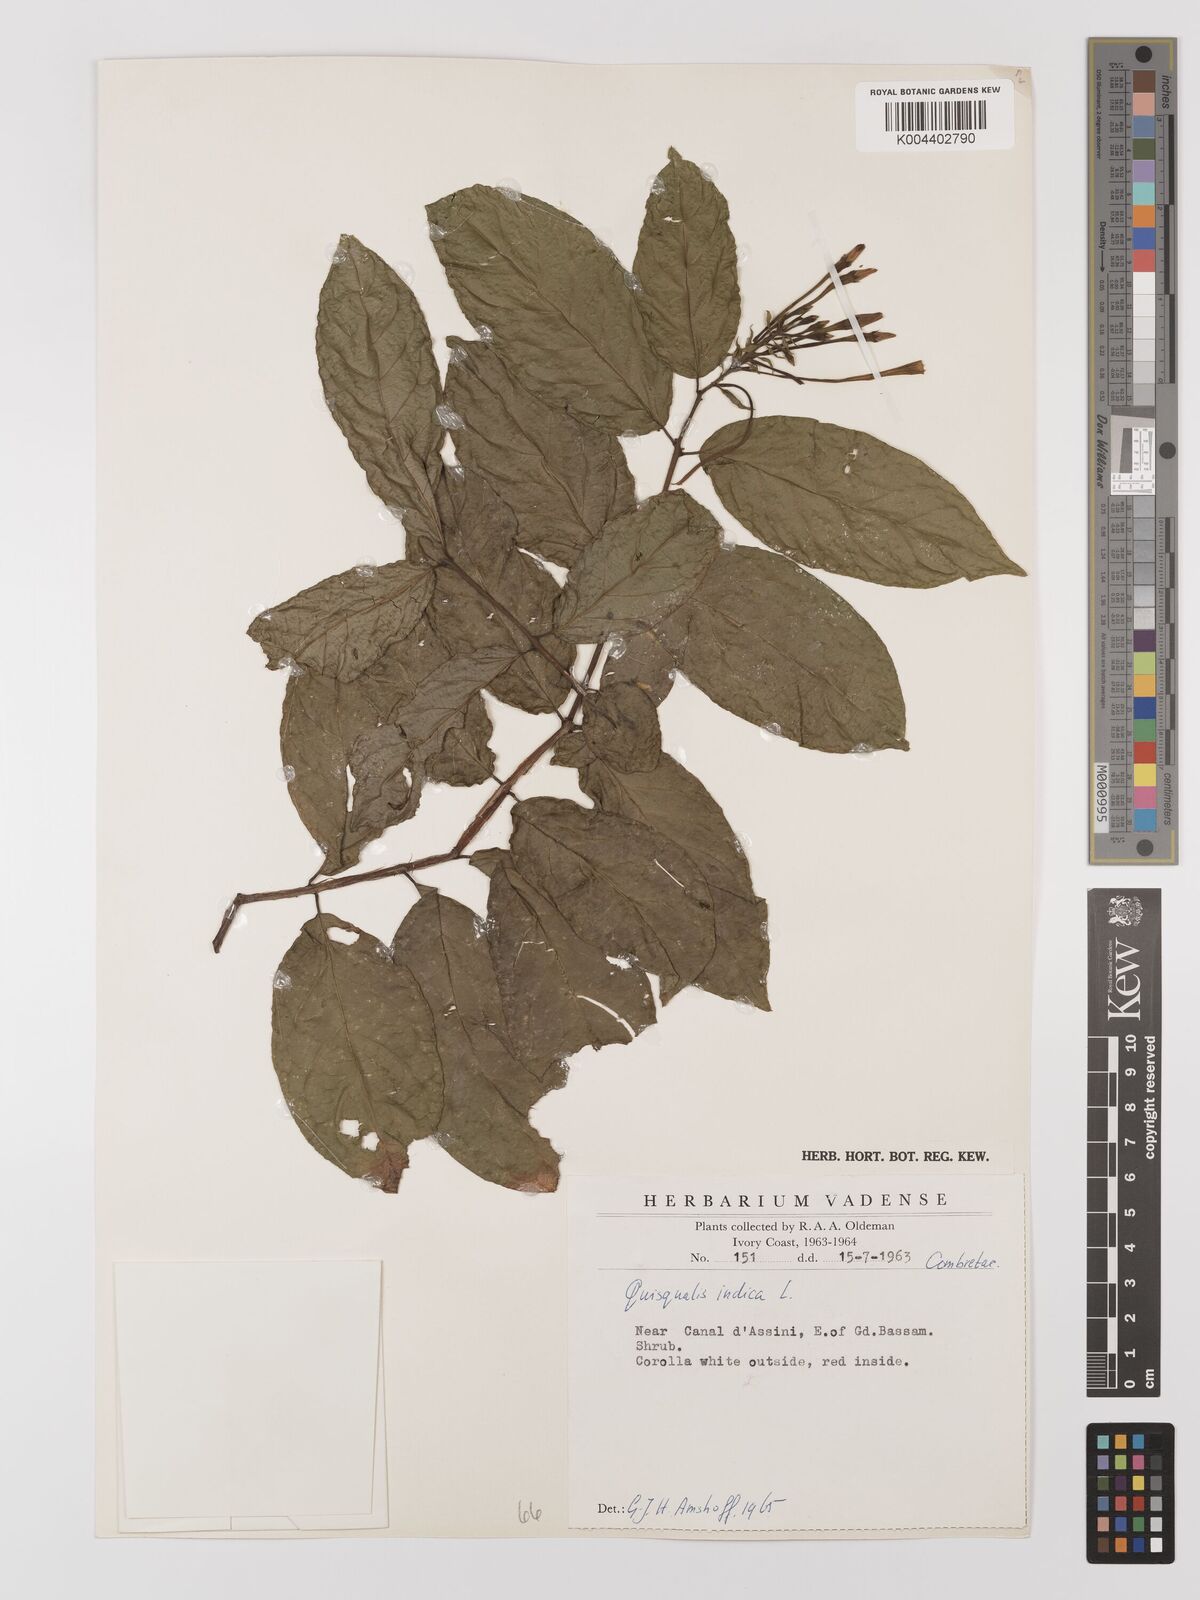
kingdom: Plantae
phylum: Tracheophyta
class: Magnoliopsida
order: Myrtales
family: Combretaceae
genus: Combretum
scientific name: Combretum
